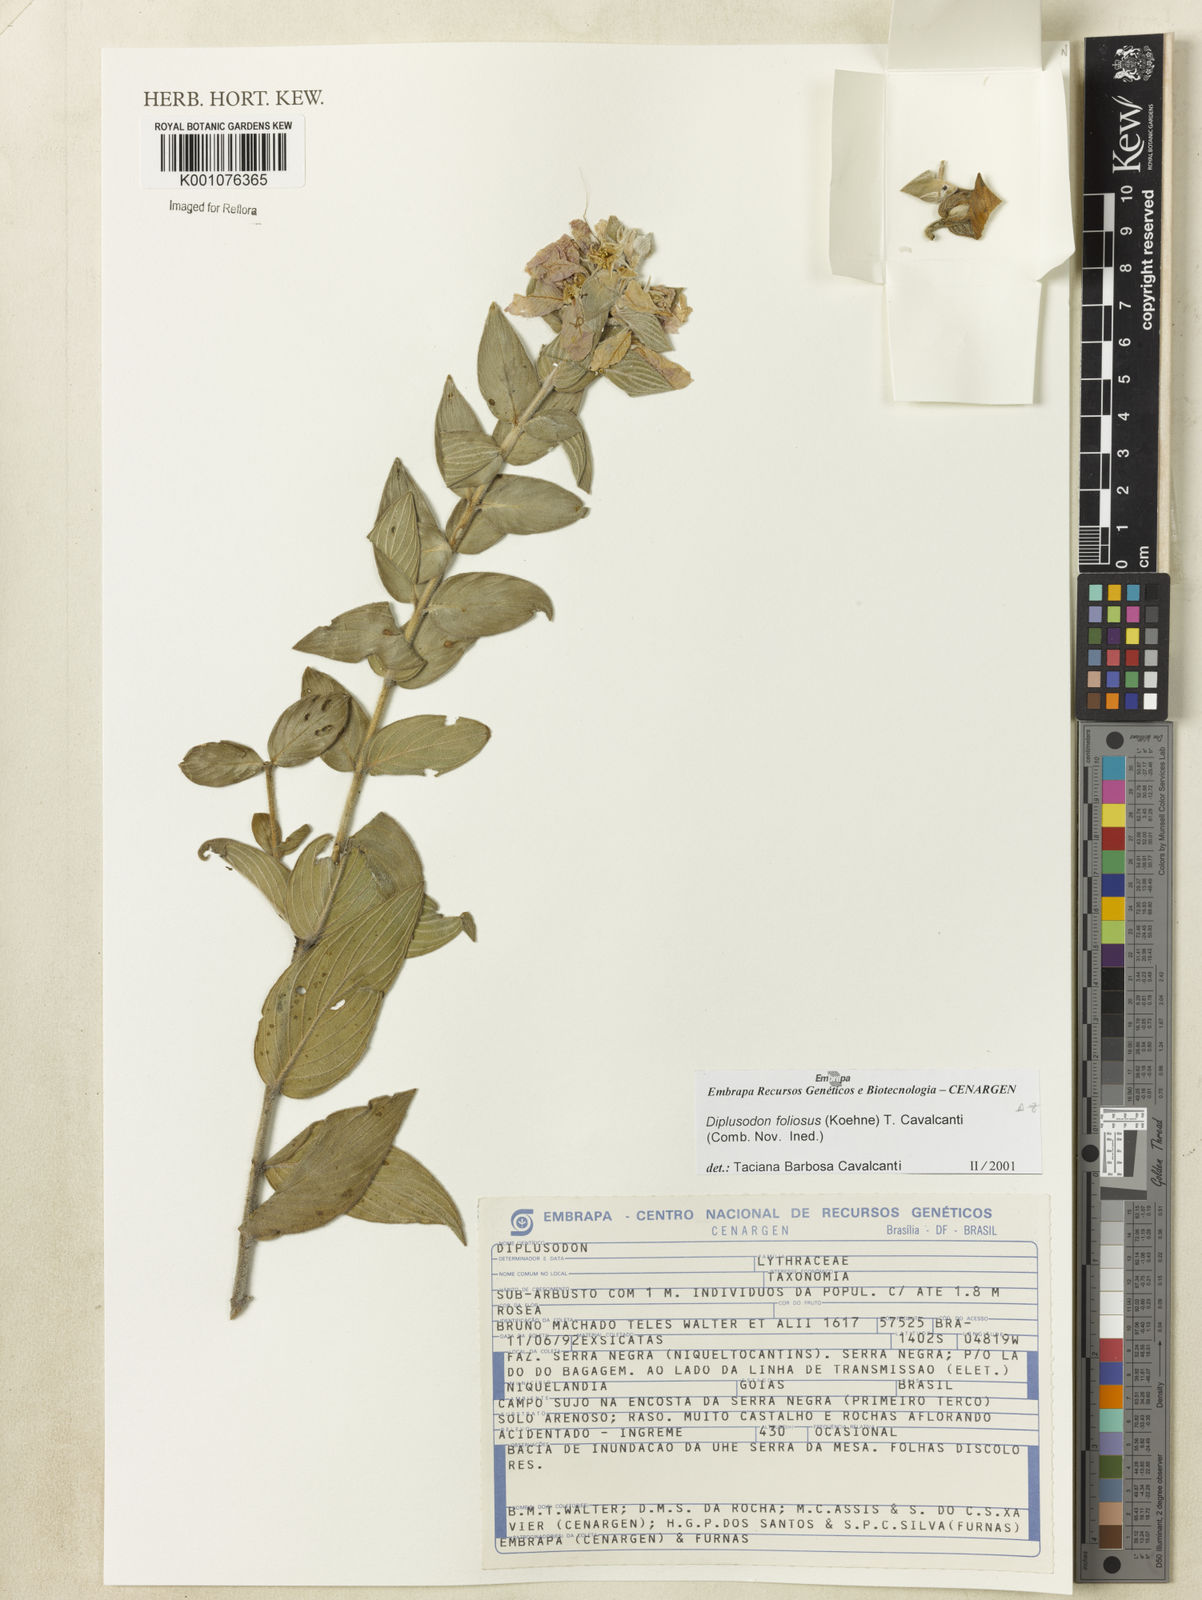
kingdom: Plantae
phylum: Tracheophyta
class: Magnoliopsida
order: Myrtales
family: Lythraceae
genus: Diplusodon
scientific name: Diplusodon paraisoensis
